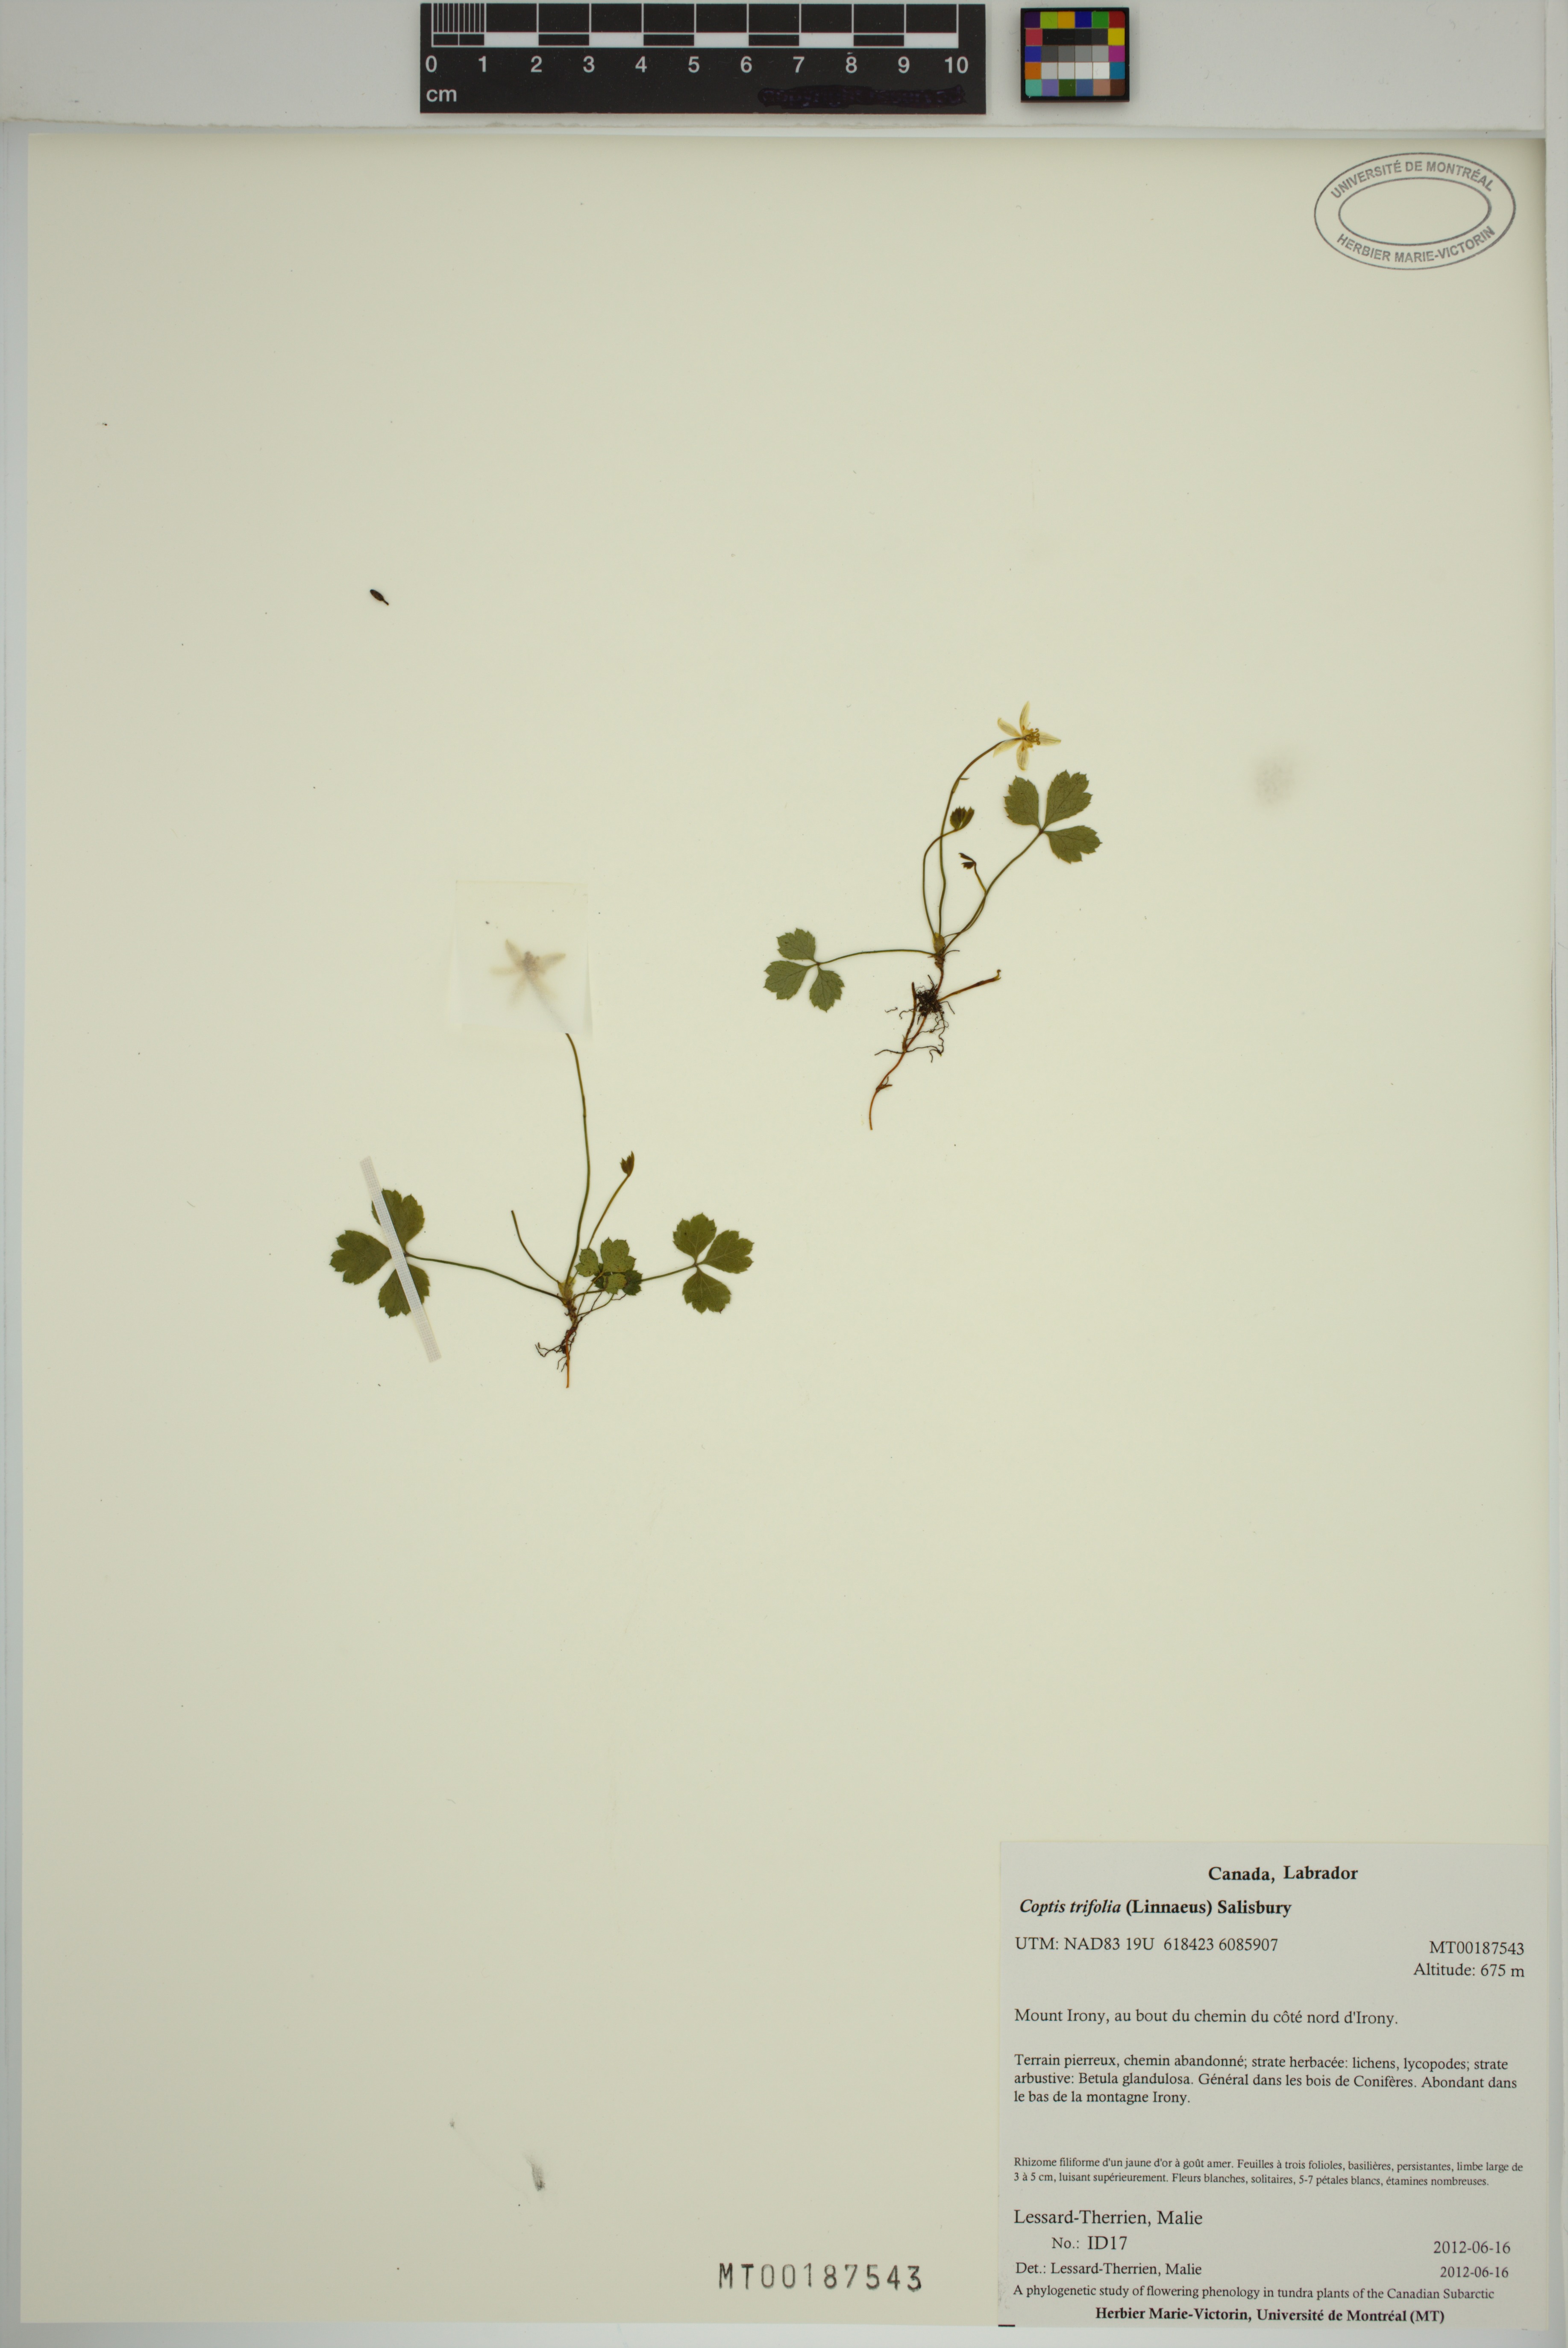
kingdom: Plantae
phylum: Tracheophyta
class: Magnoliopsida
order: Ranunculales
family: Ranunculaceae
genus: Coptis
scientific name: Coptis trifolia
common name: Canker-root
